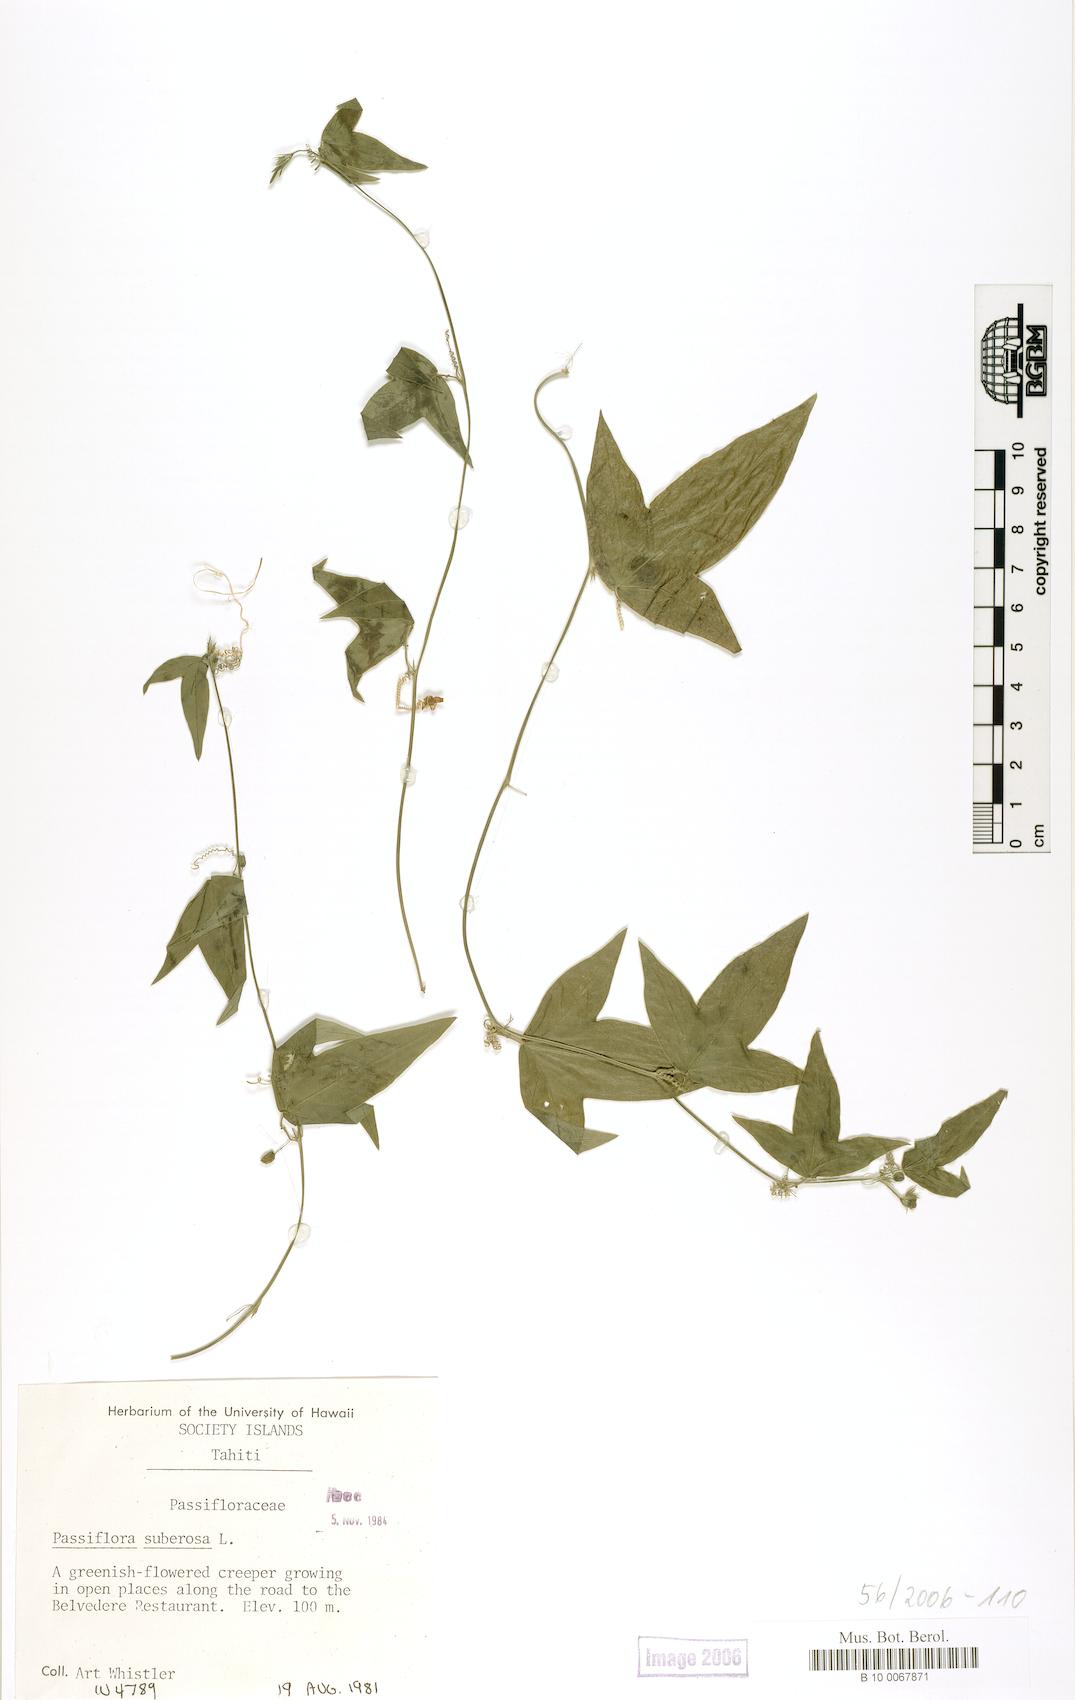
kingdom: Plantae
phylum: Tracheophyta
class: Magnoliopsida
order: Malpighiales
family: Passifloraceae
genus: Passiflora
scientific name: Passiflora suberosa
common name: Wild passionfruit
